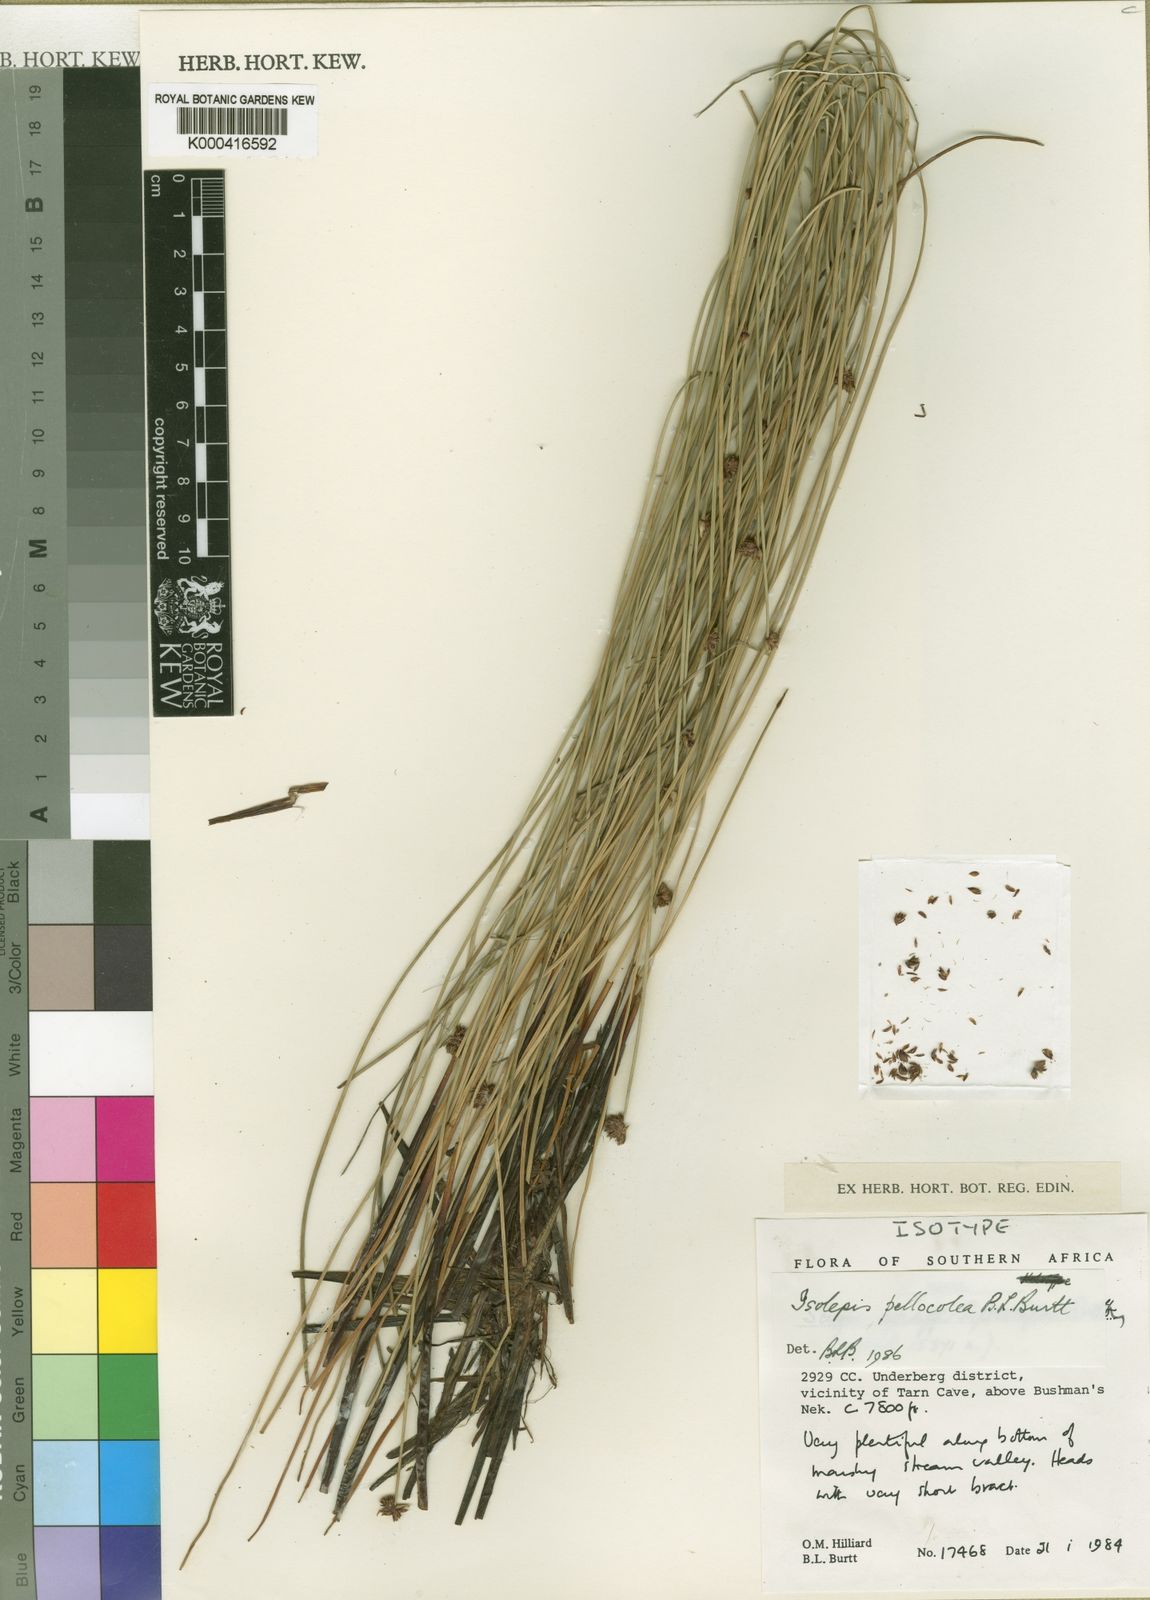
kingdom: Plantae
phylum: Tracheophyta
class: Liliopsida
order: Poales
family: Cyperaceae
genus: Isolepis
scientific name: Isolepis pellocolea
